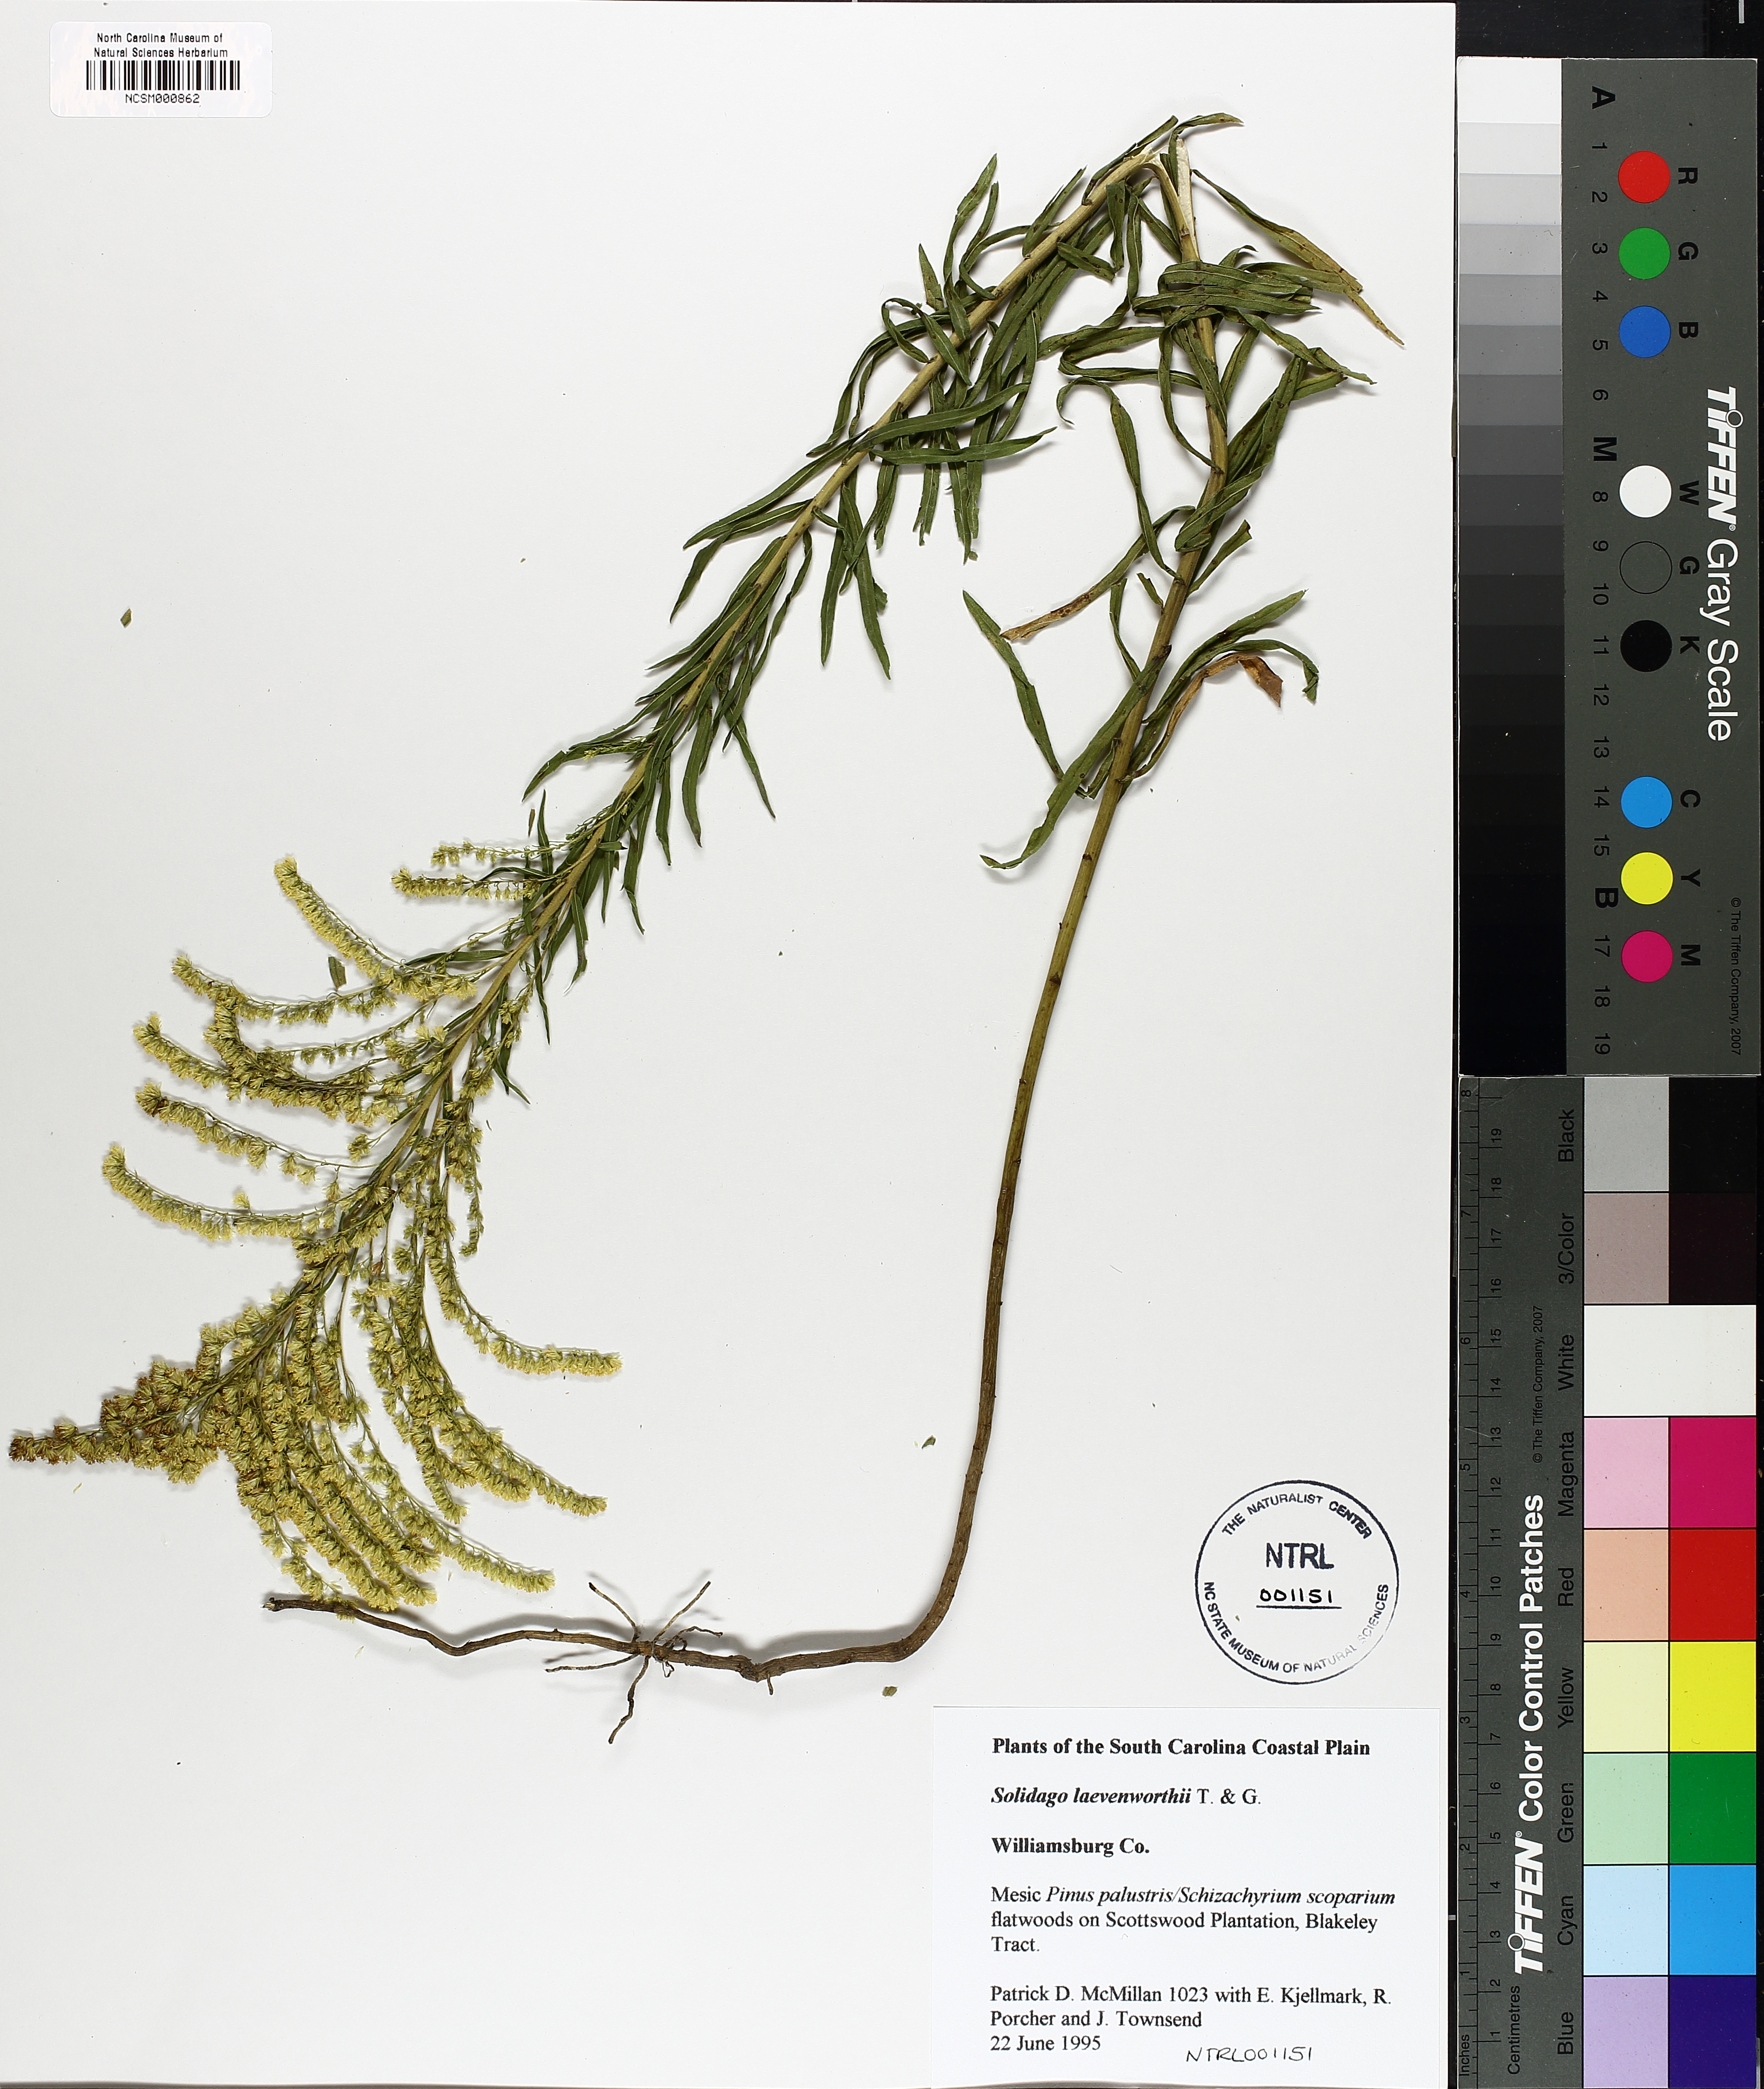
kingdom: Plantae
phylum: Tracheophyta
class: Magnoliopsida
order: Asterales
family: Asteraceae
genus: Solidago
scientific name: Solidago leavenworthii
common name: Leavenworth's goldenrod
